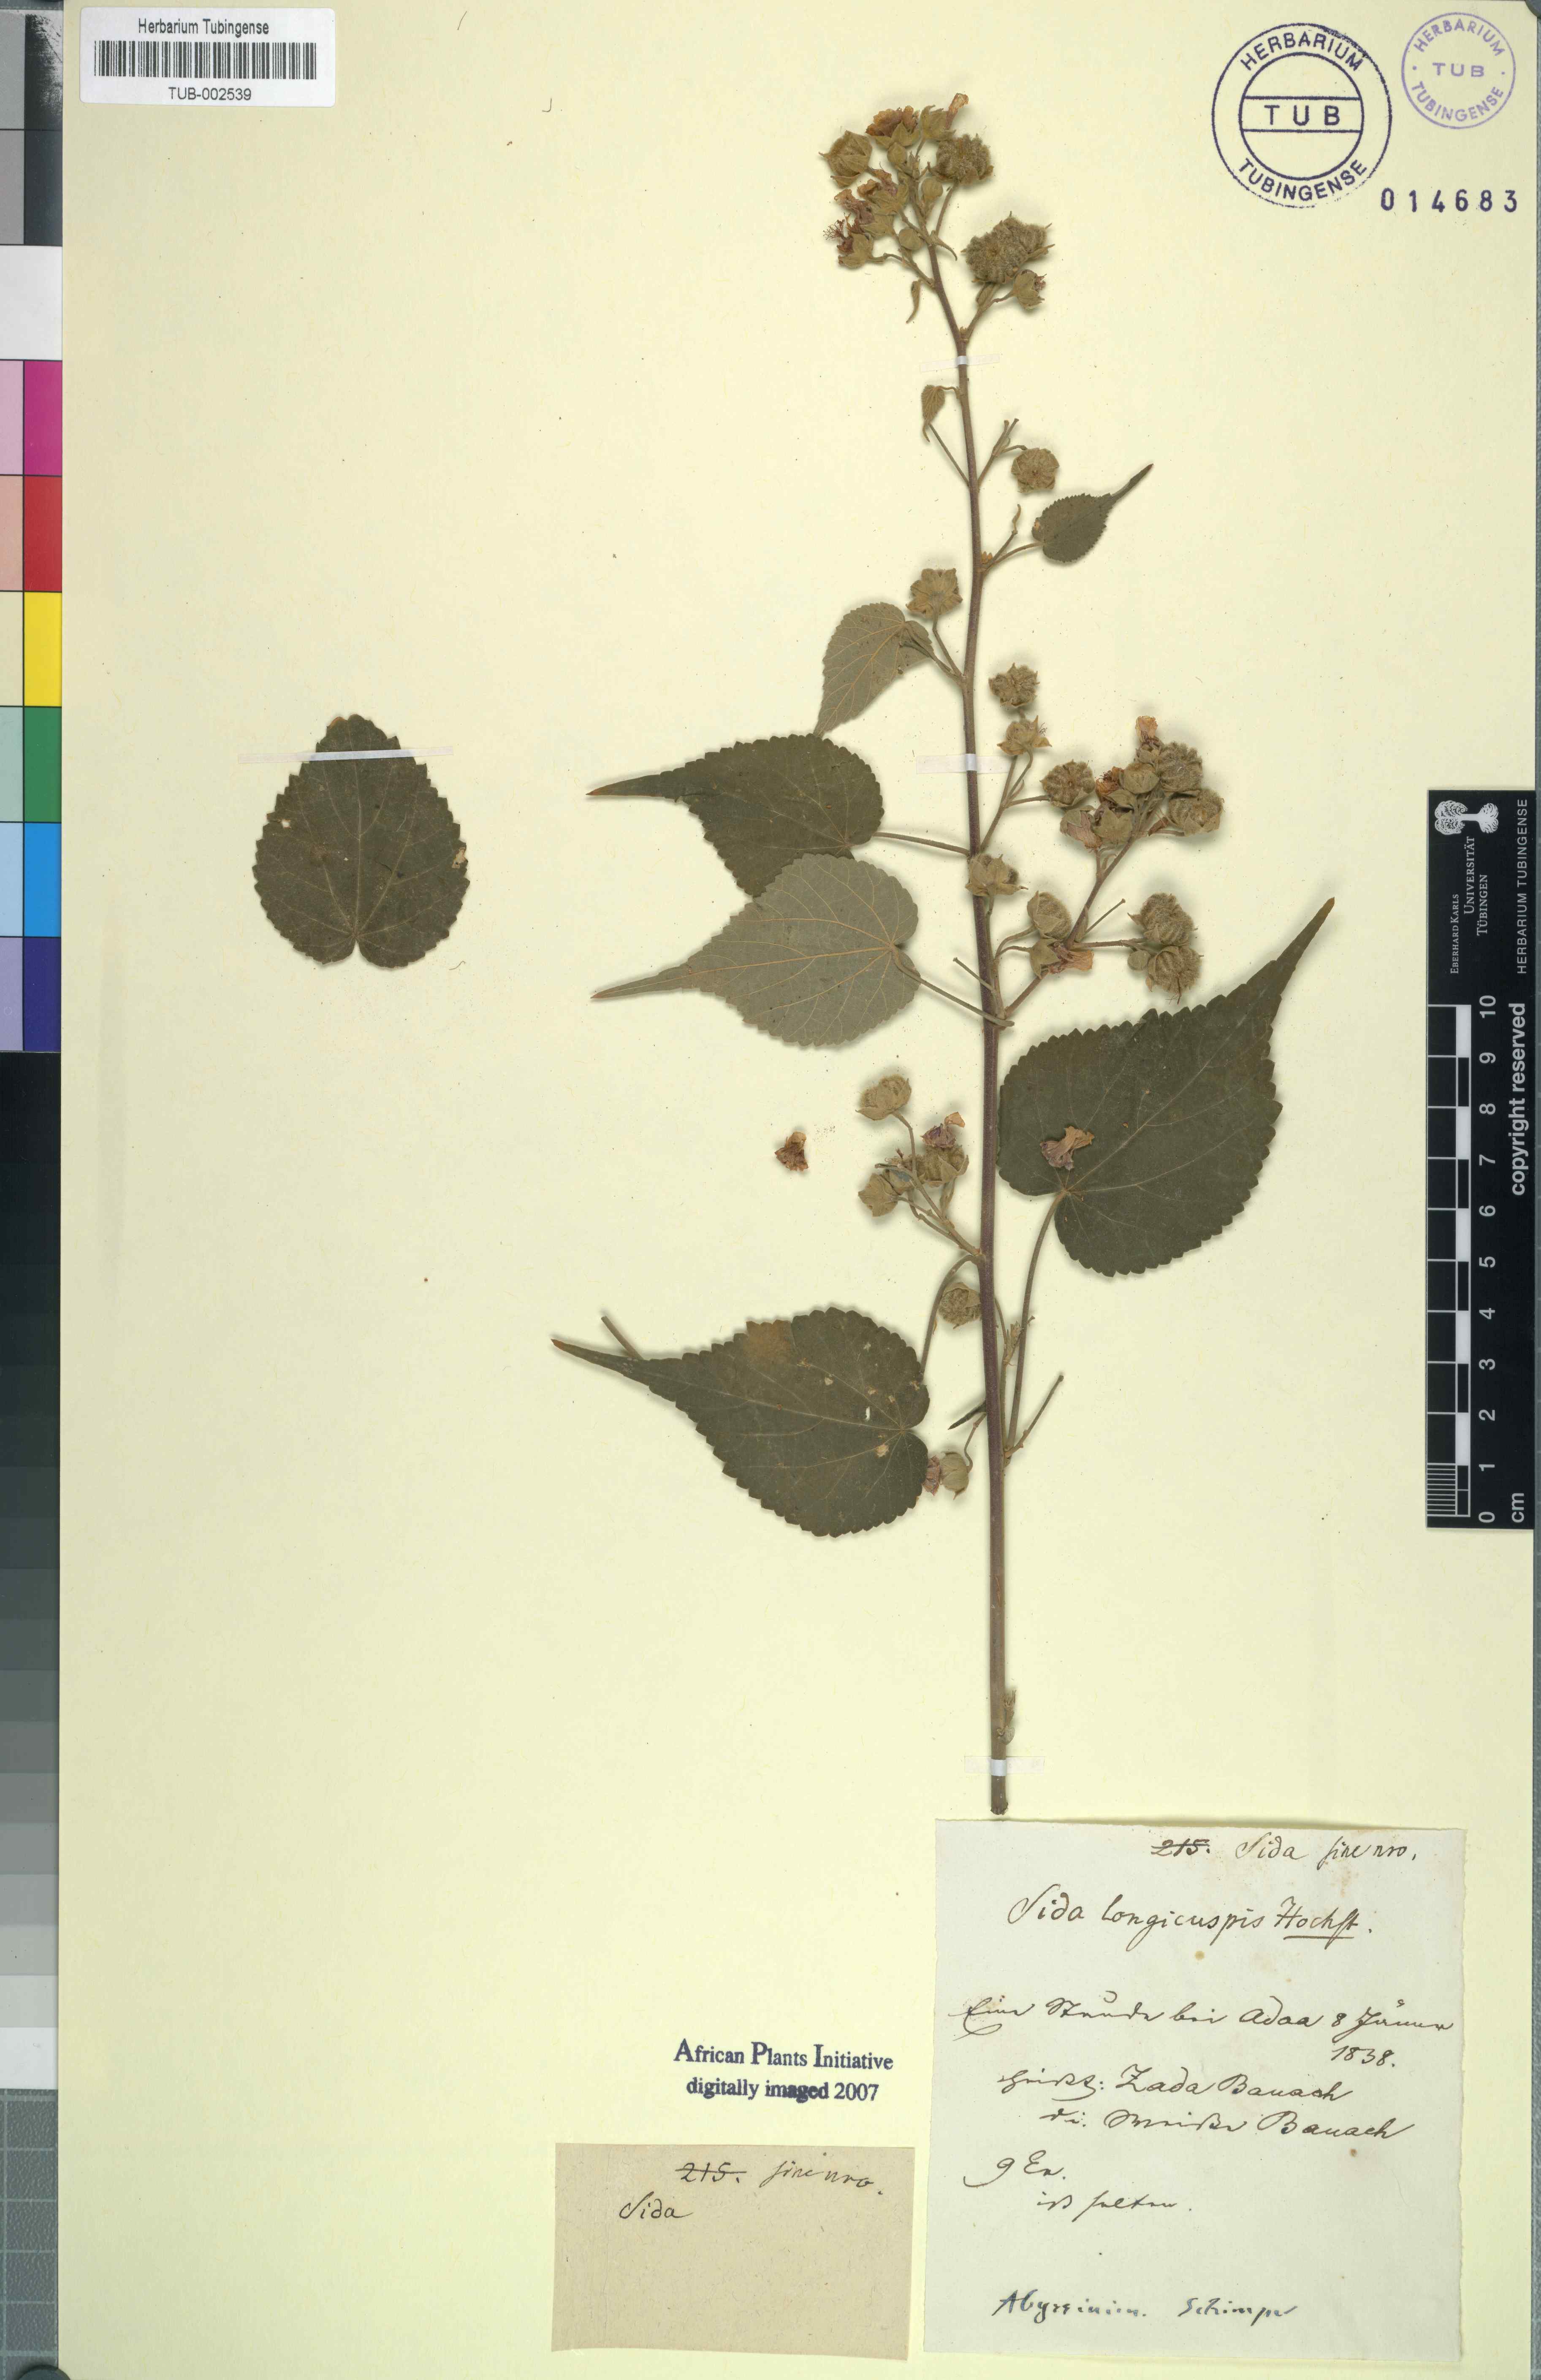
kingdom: Plantae
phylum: Tracheophyta
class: Magnoliopsida
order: Malvales
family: Malvaceae
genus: Abutilon
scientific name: Abutilon longicuspe
